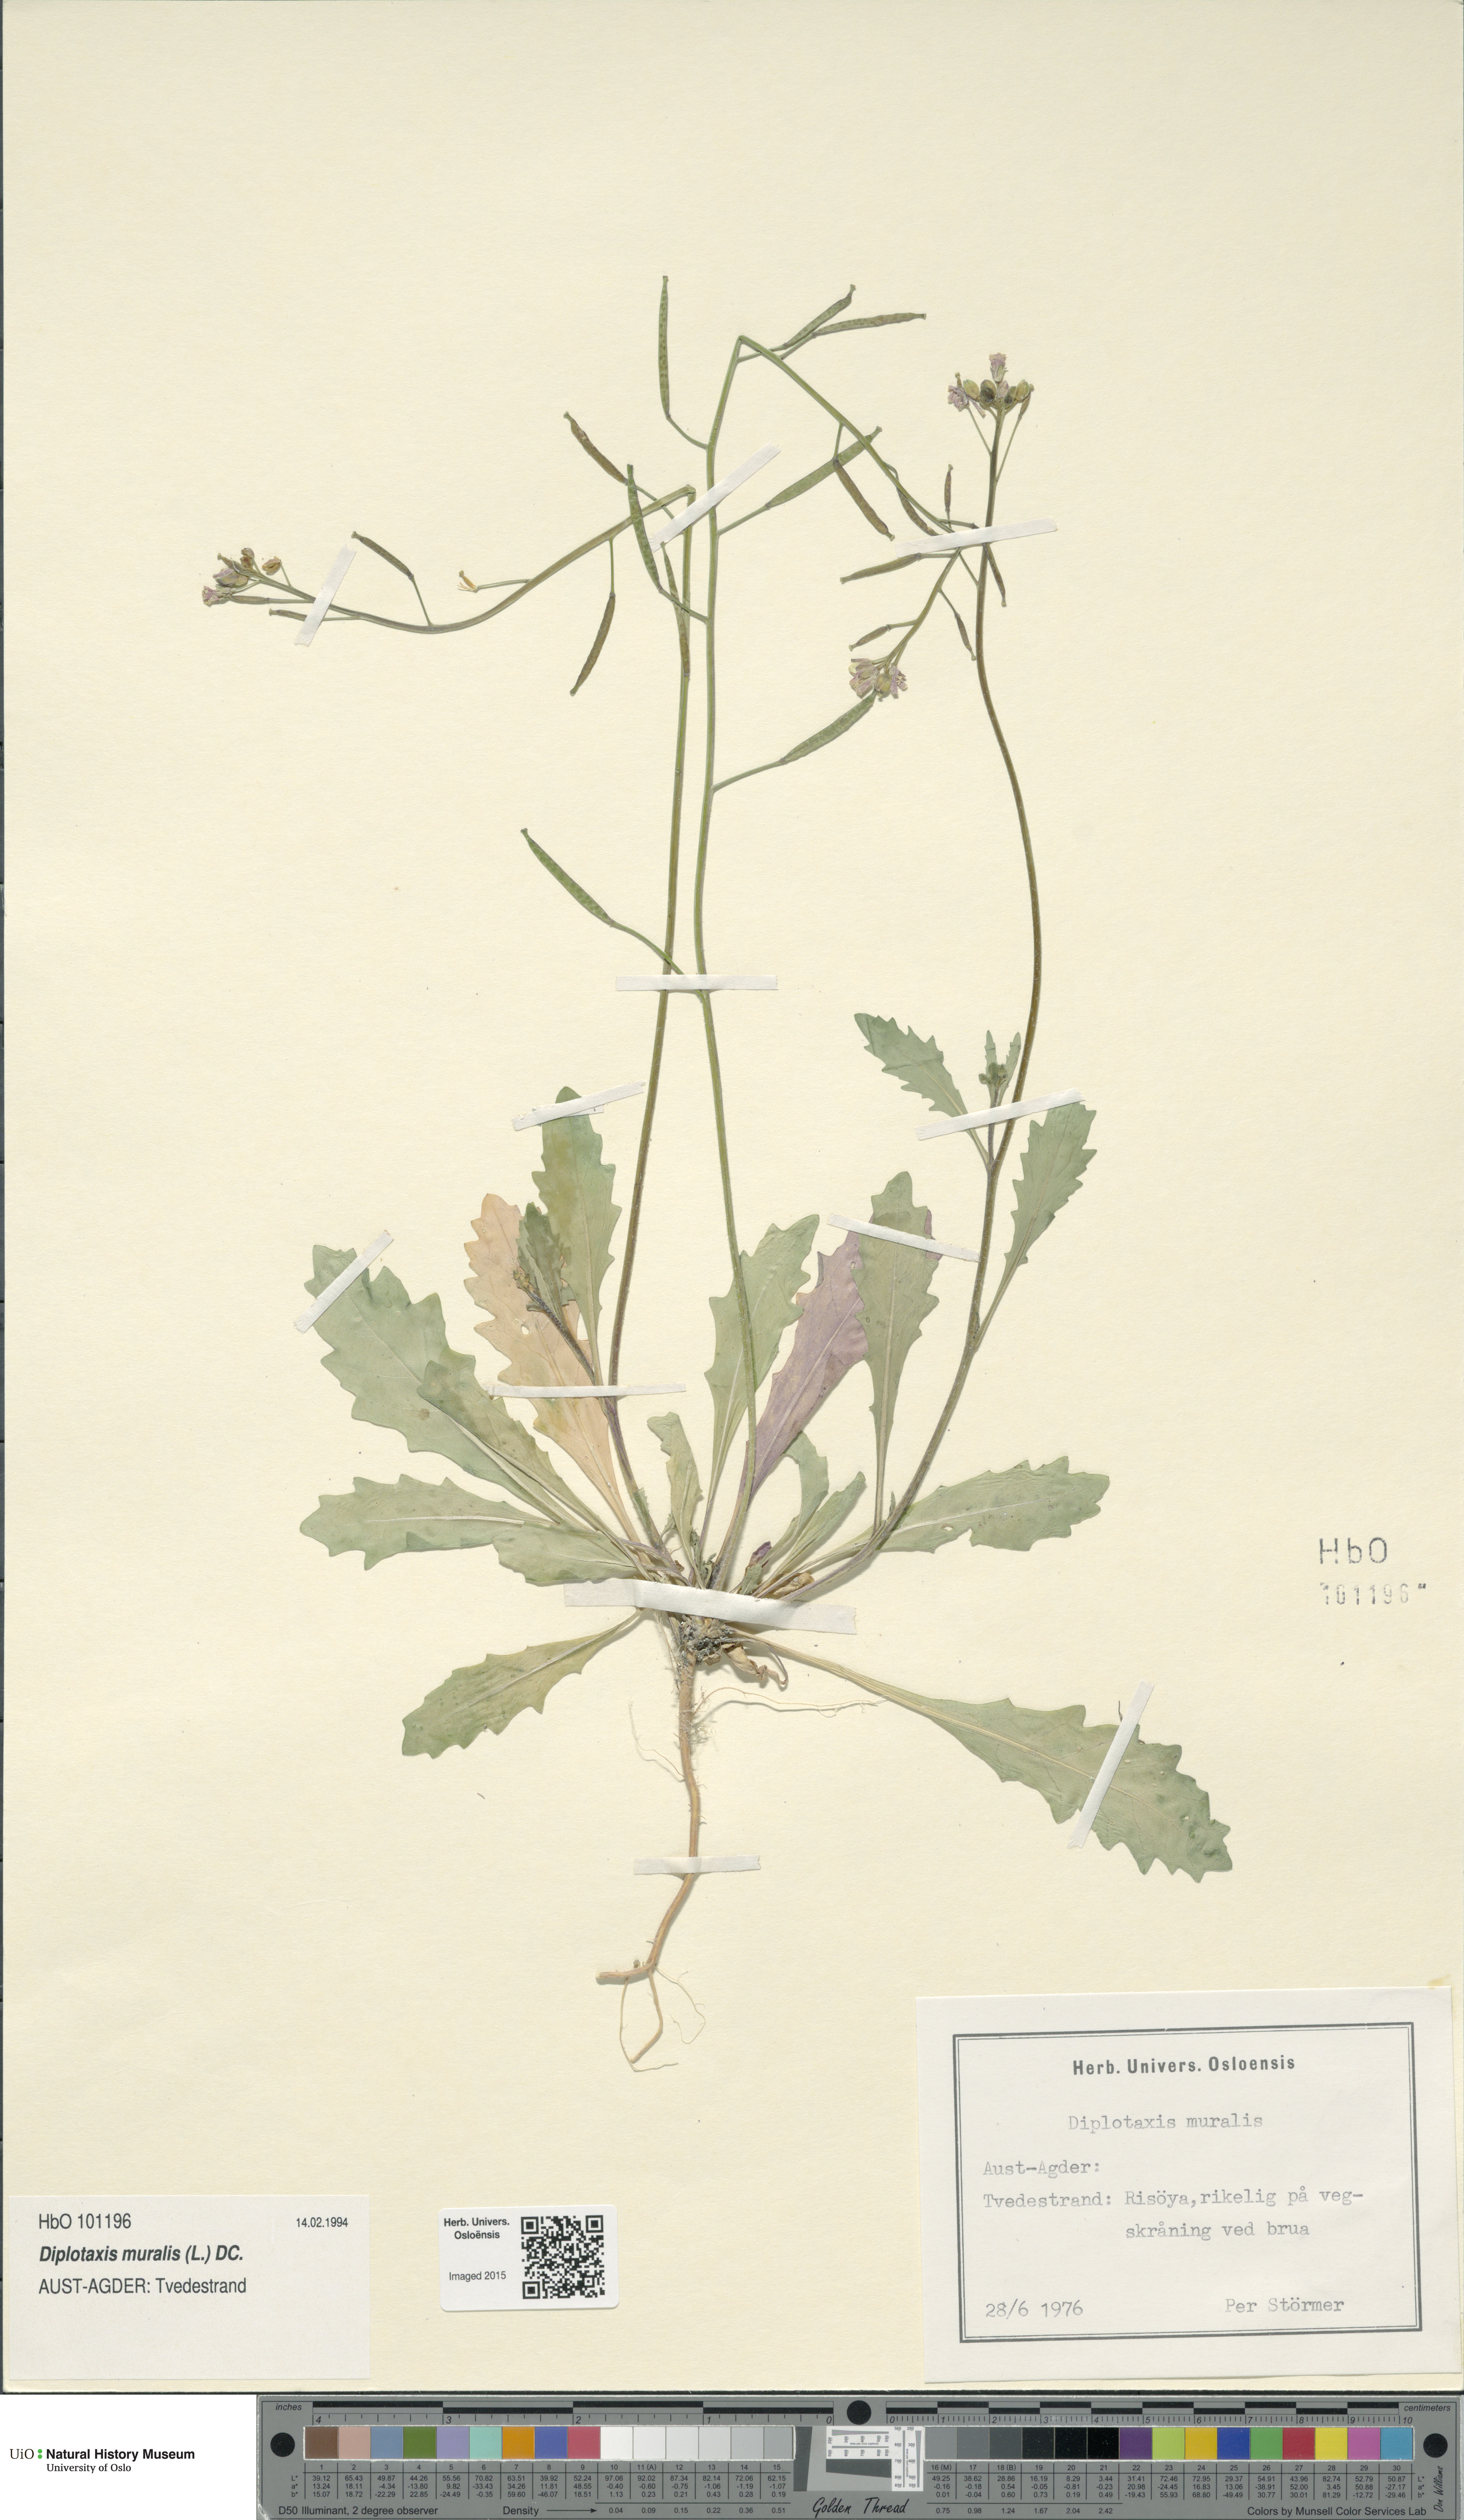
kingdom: Plantae
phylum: Tracheophyta
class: Magnoliopsida
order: Brassicales
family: Brassicaceae
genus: Diplotaxis
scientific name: Diplotaxis muralis
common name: Annual wall-rocket
